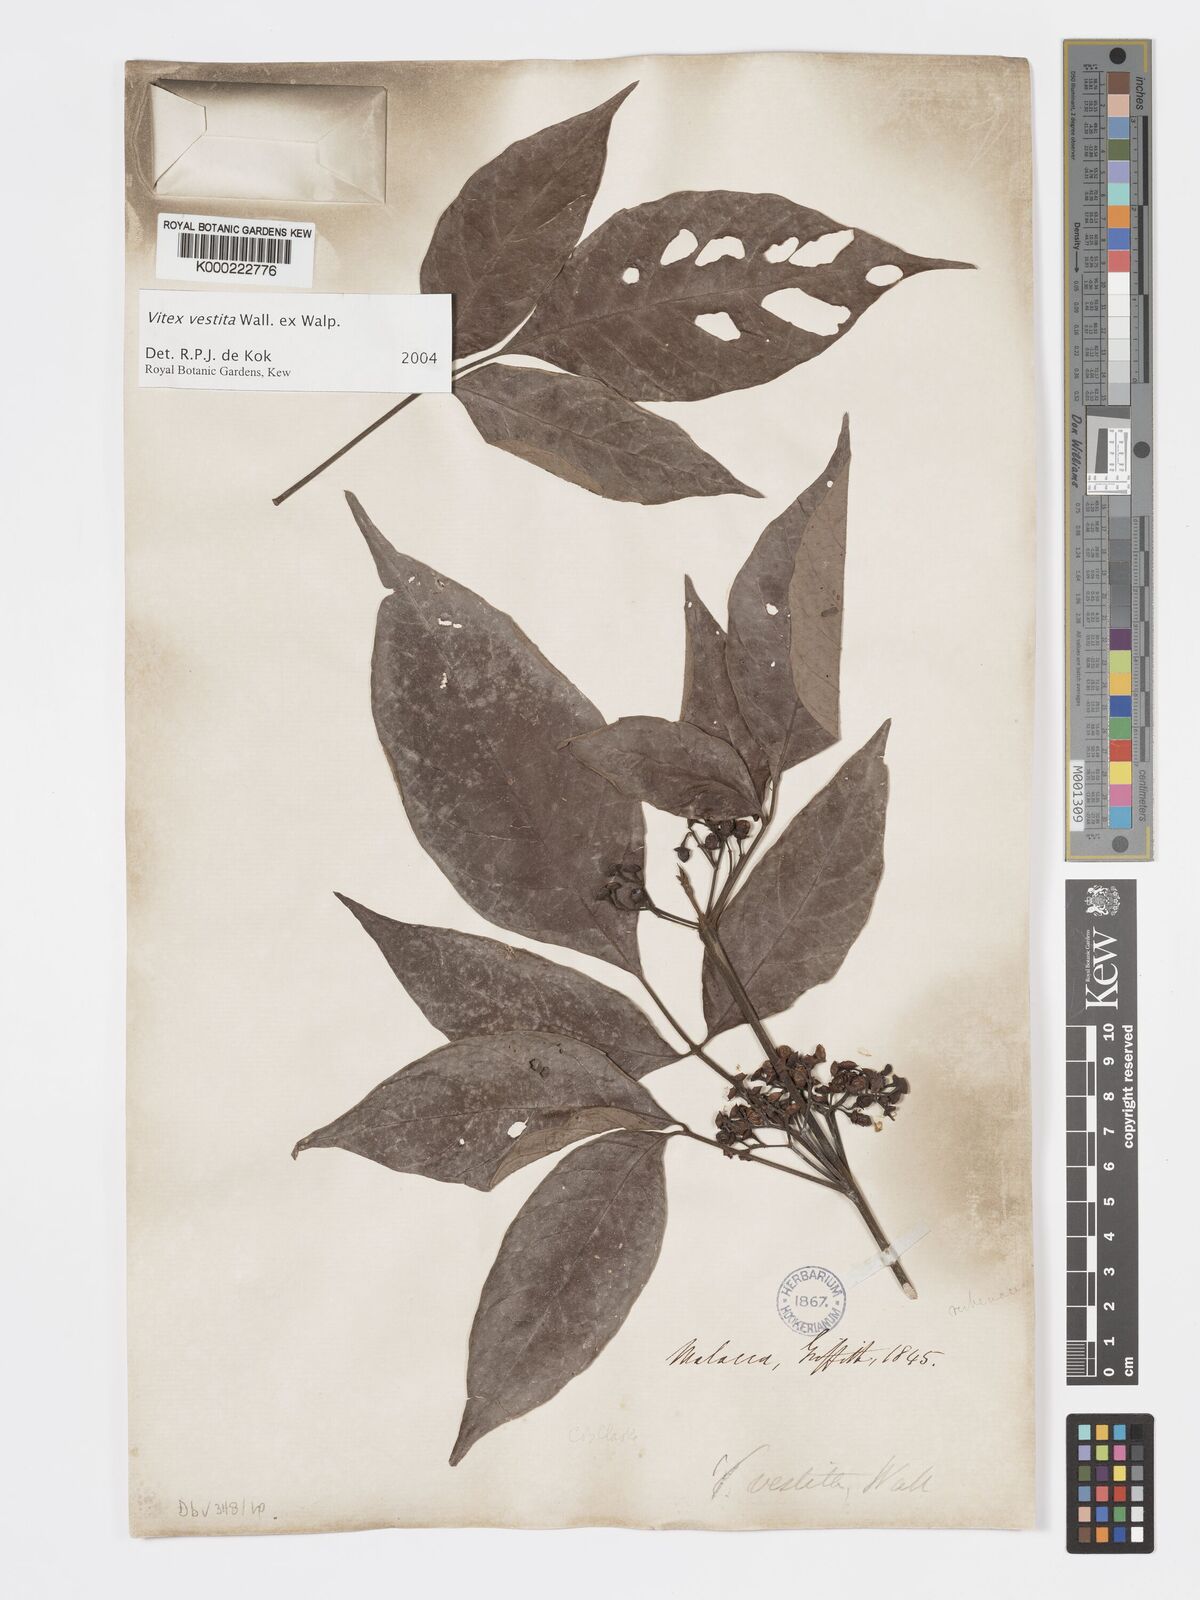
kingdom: Plantae
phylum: Tracheophyta
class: Magnoliopsida
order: Lamiales
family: Lamiaceae
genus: Vitex
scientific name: Vitex vestita
